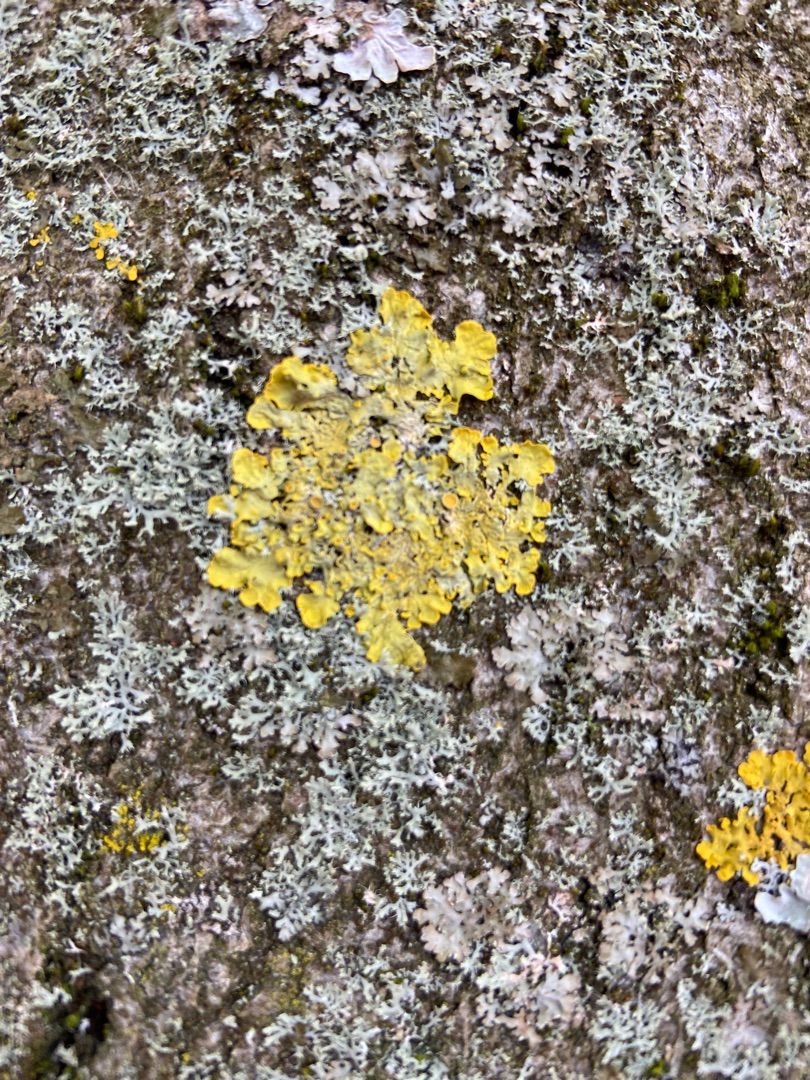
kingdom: Fungi
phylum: Ascomycota
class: Lecanoromycetes
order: Teloschistales
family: Teloschistaceae
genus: Xanthoria
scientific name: Xanthoria parietina
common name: Almindelig væggelav
